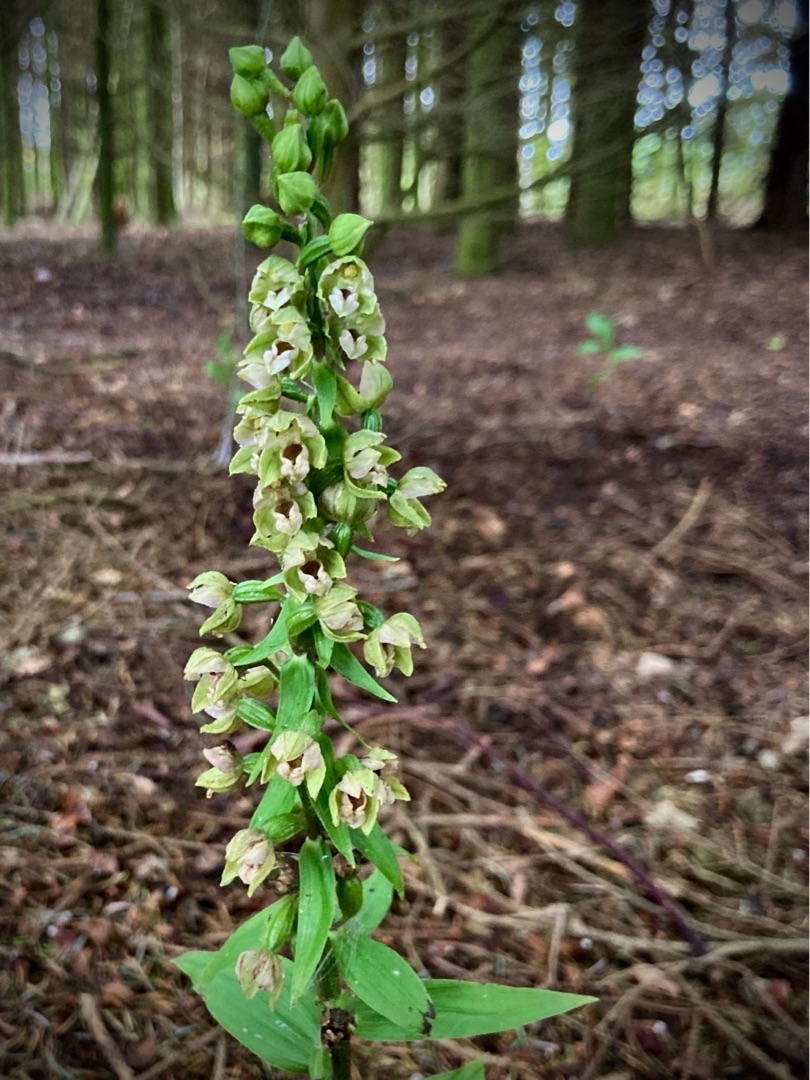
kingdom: Plantae
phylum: Tracheophyta
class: Liliopsida
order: Asparagales
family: Orchidaceae
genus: Epipactis
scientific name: Epipactis helleborine
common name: Skov-hullæbe
